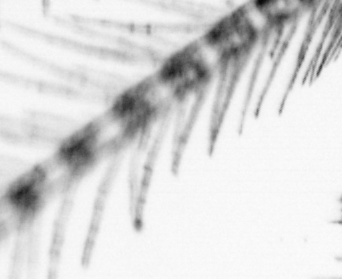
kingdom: Animalia
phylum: Chordata
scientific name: Chordata
